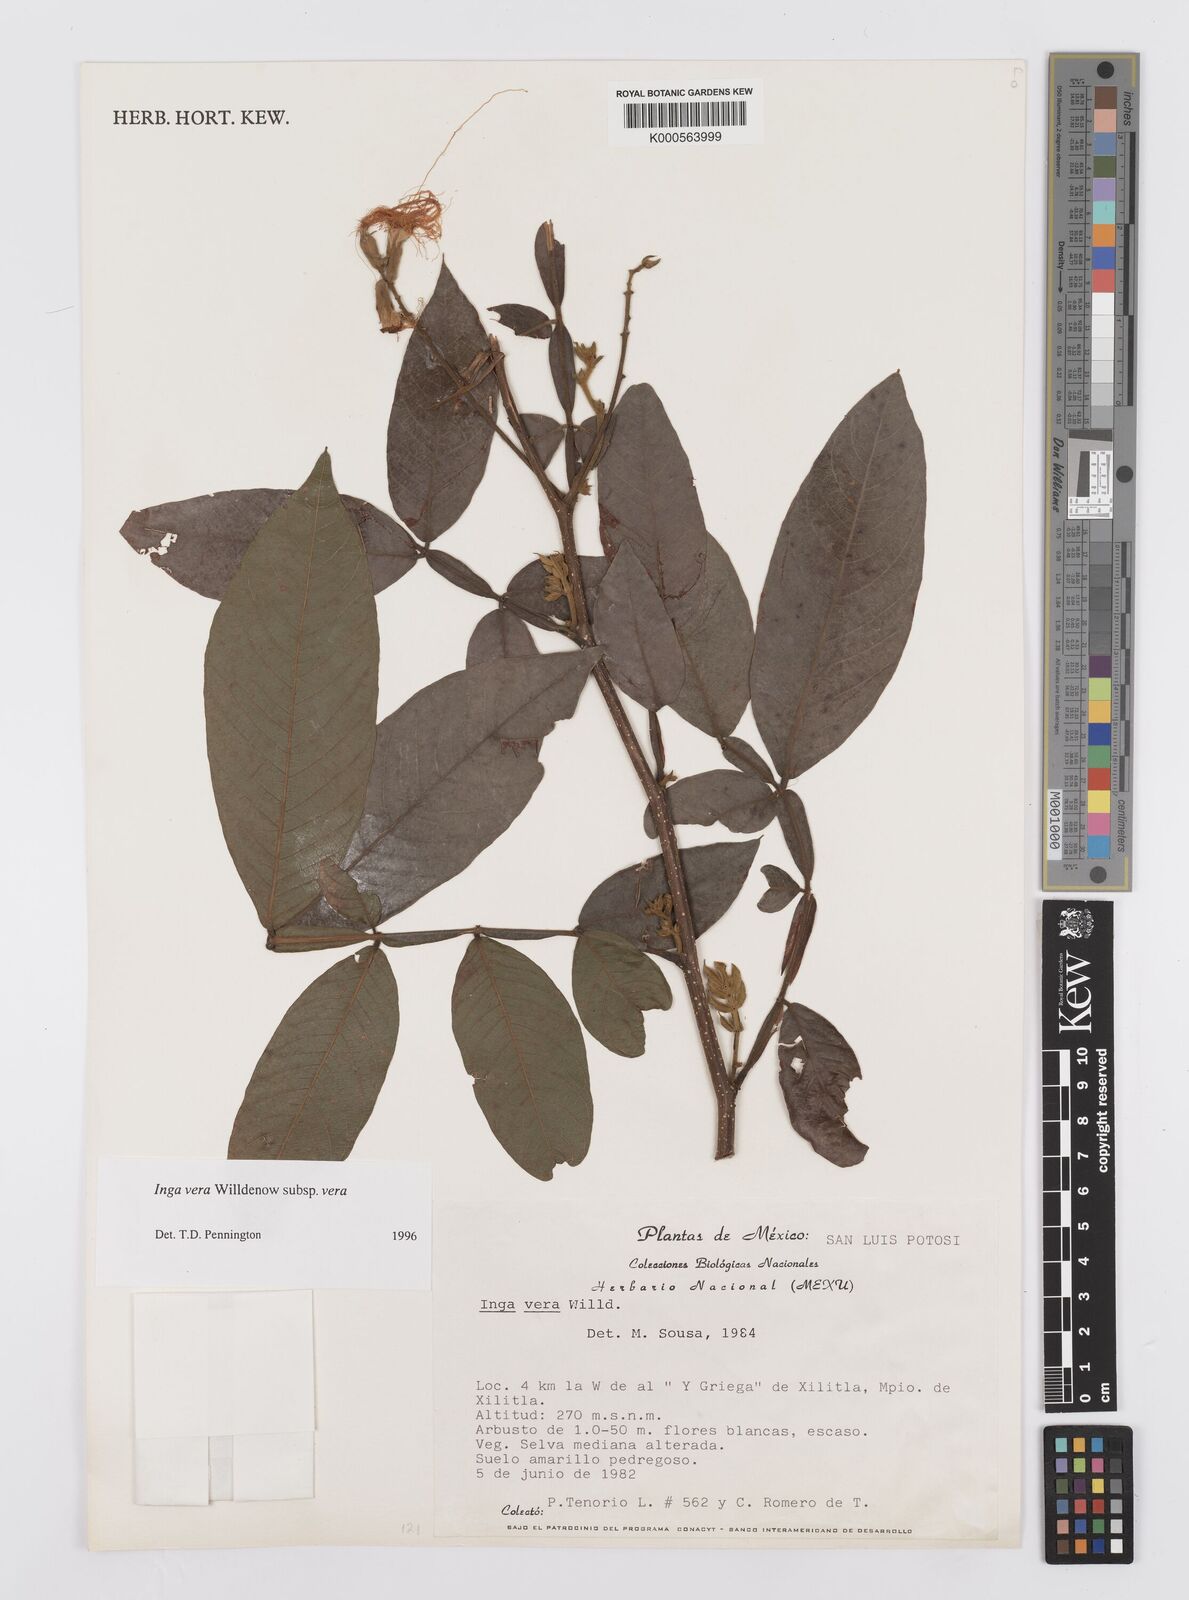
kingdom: Plantae
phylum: Tracheophyta
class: Magnoliopsida
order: Fabales
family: Fabaceae
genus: Inga
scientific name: Inga vera
